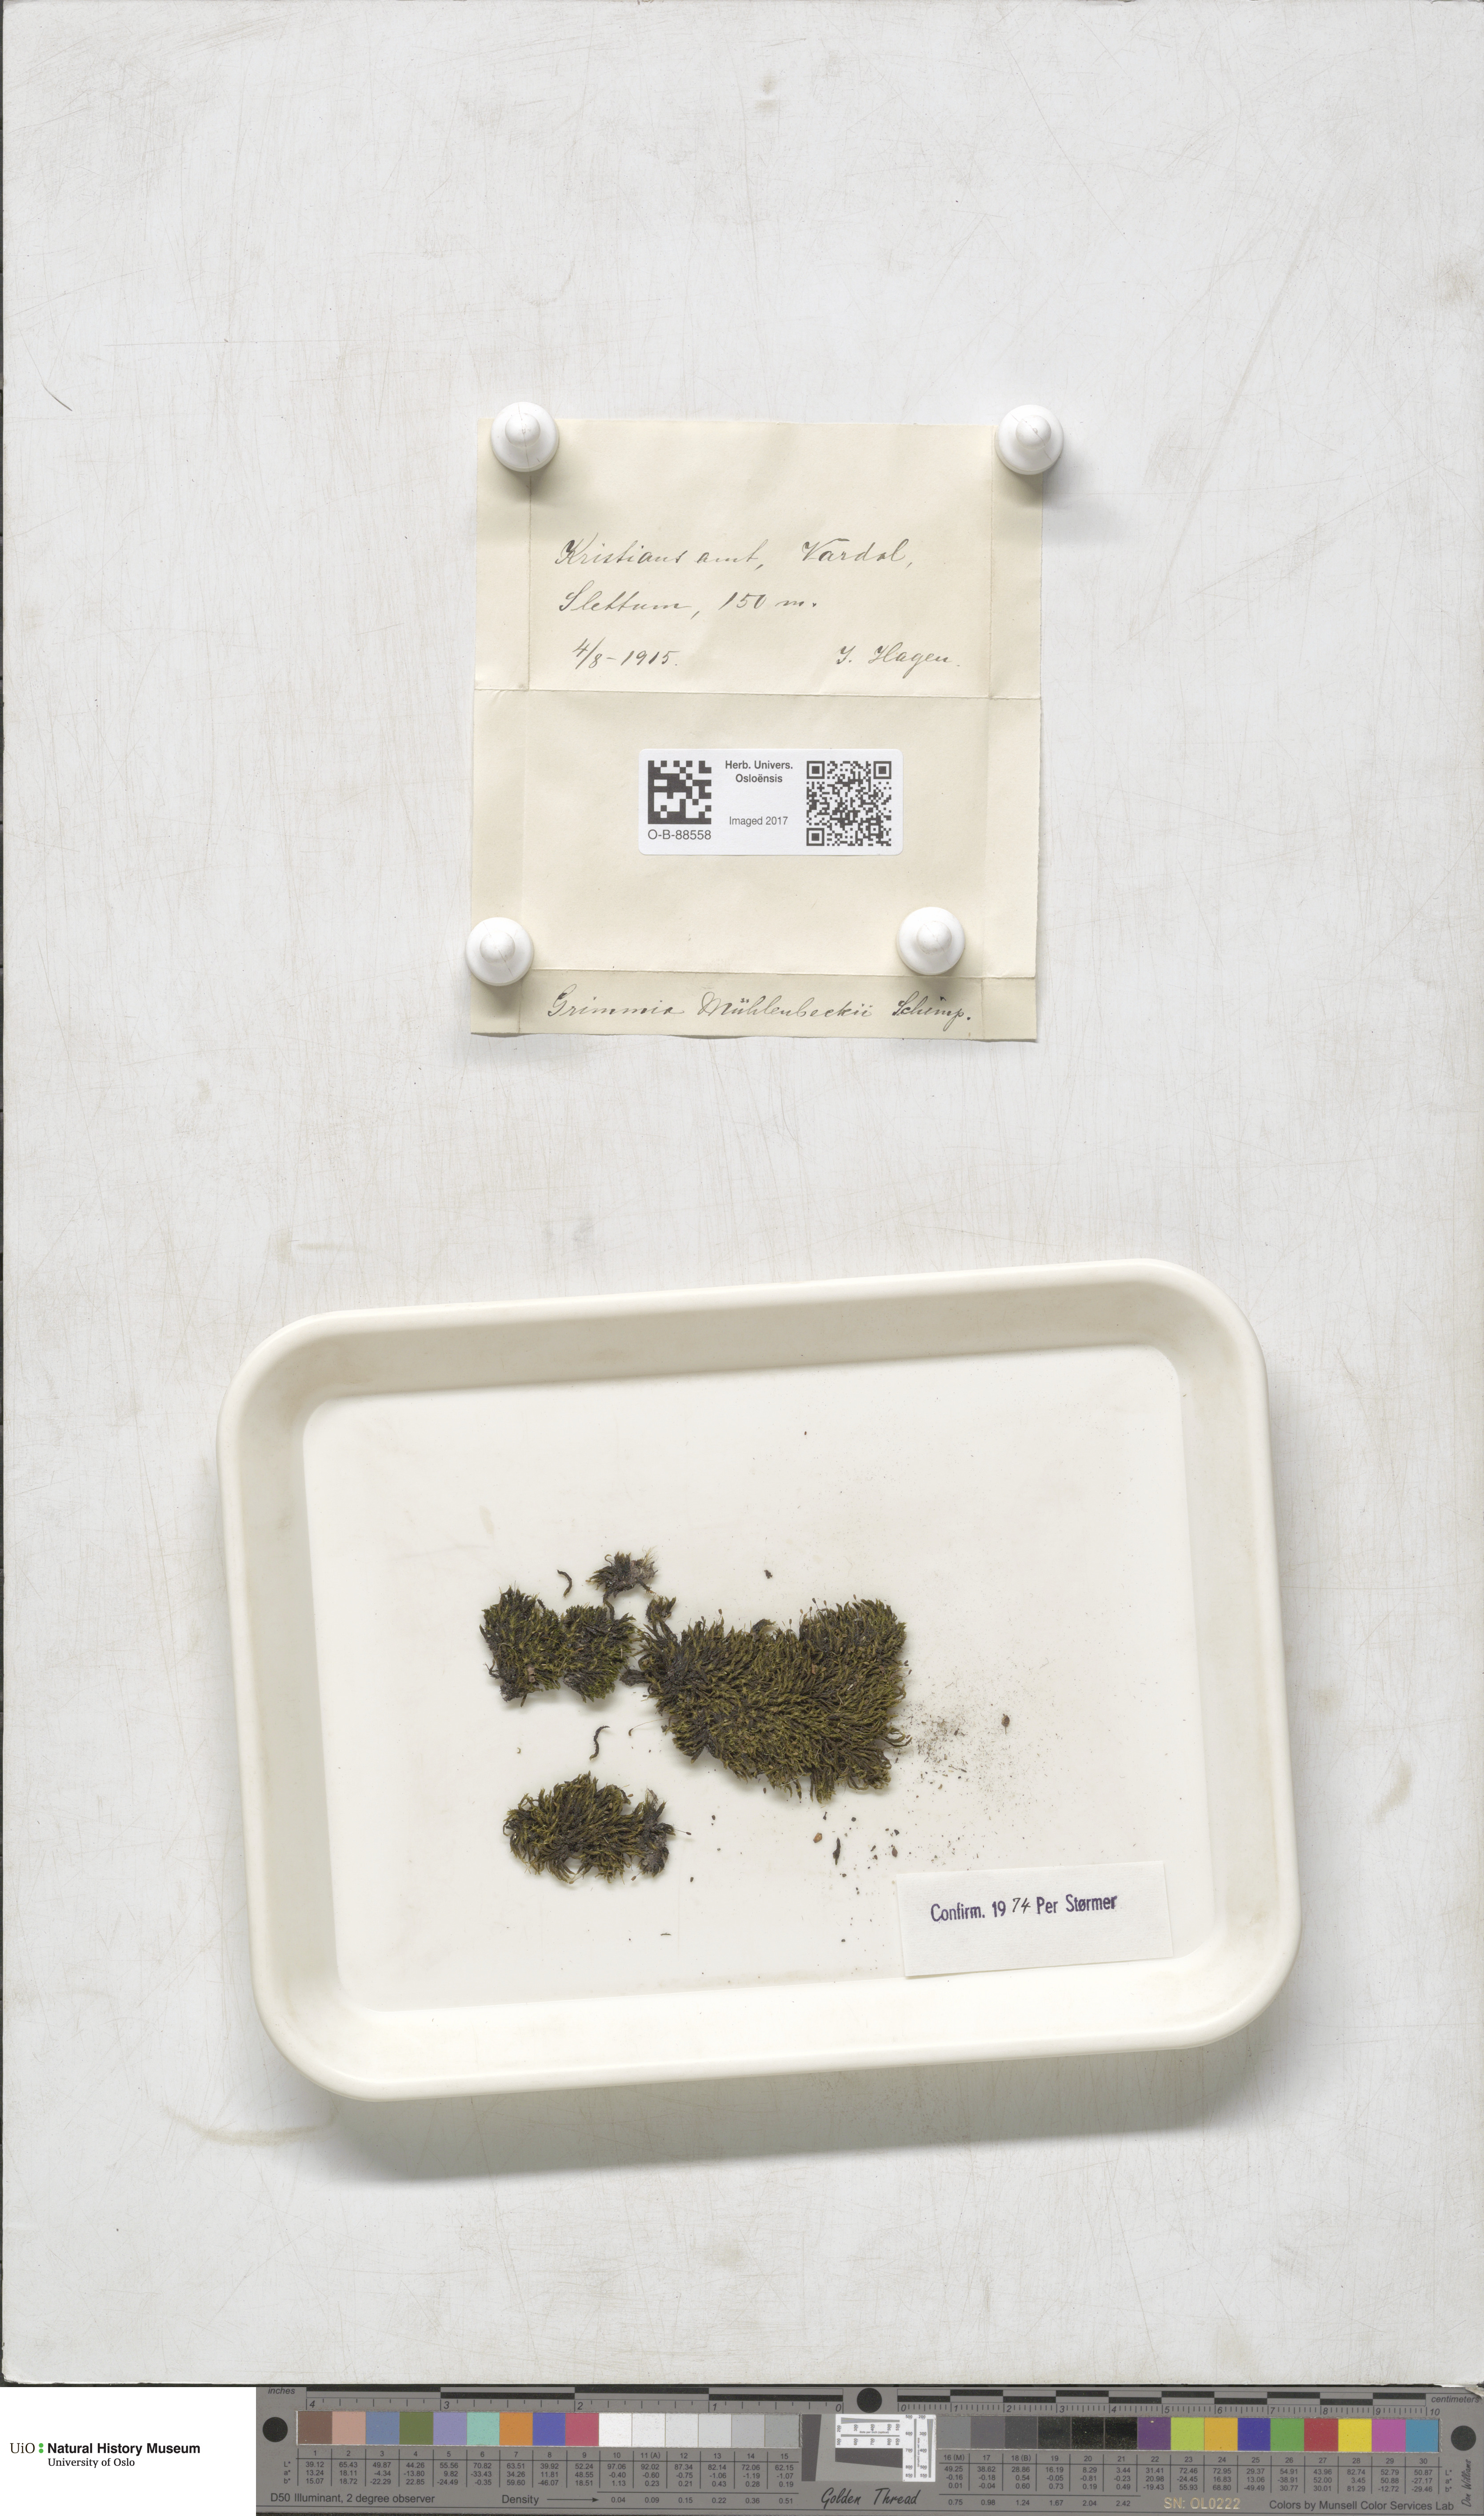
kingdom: Plantae
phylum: Bryophyta
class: Bryopsida
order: Grimmiales
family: Grimmiaceae
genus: Grimmia
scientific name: Grimmia trichophylla
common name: Hair-pointed grimmia
